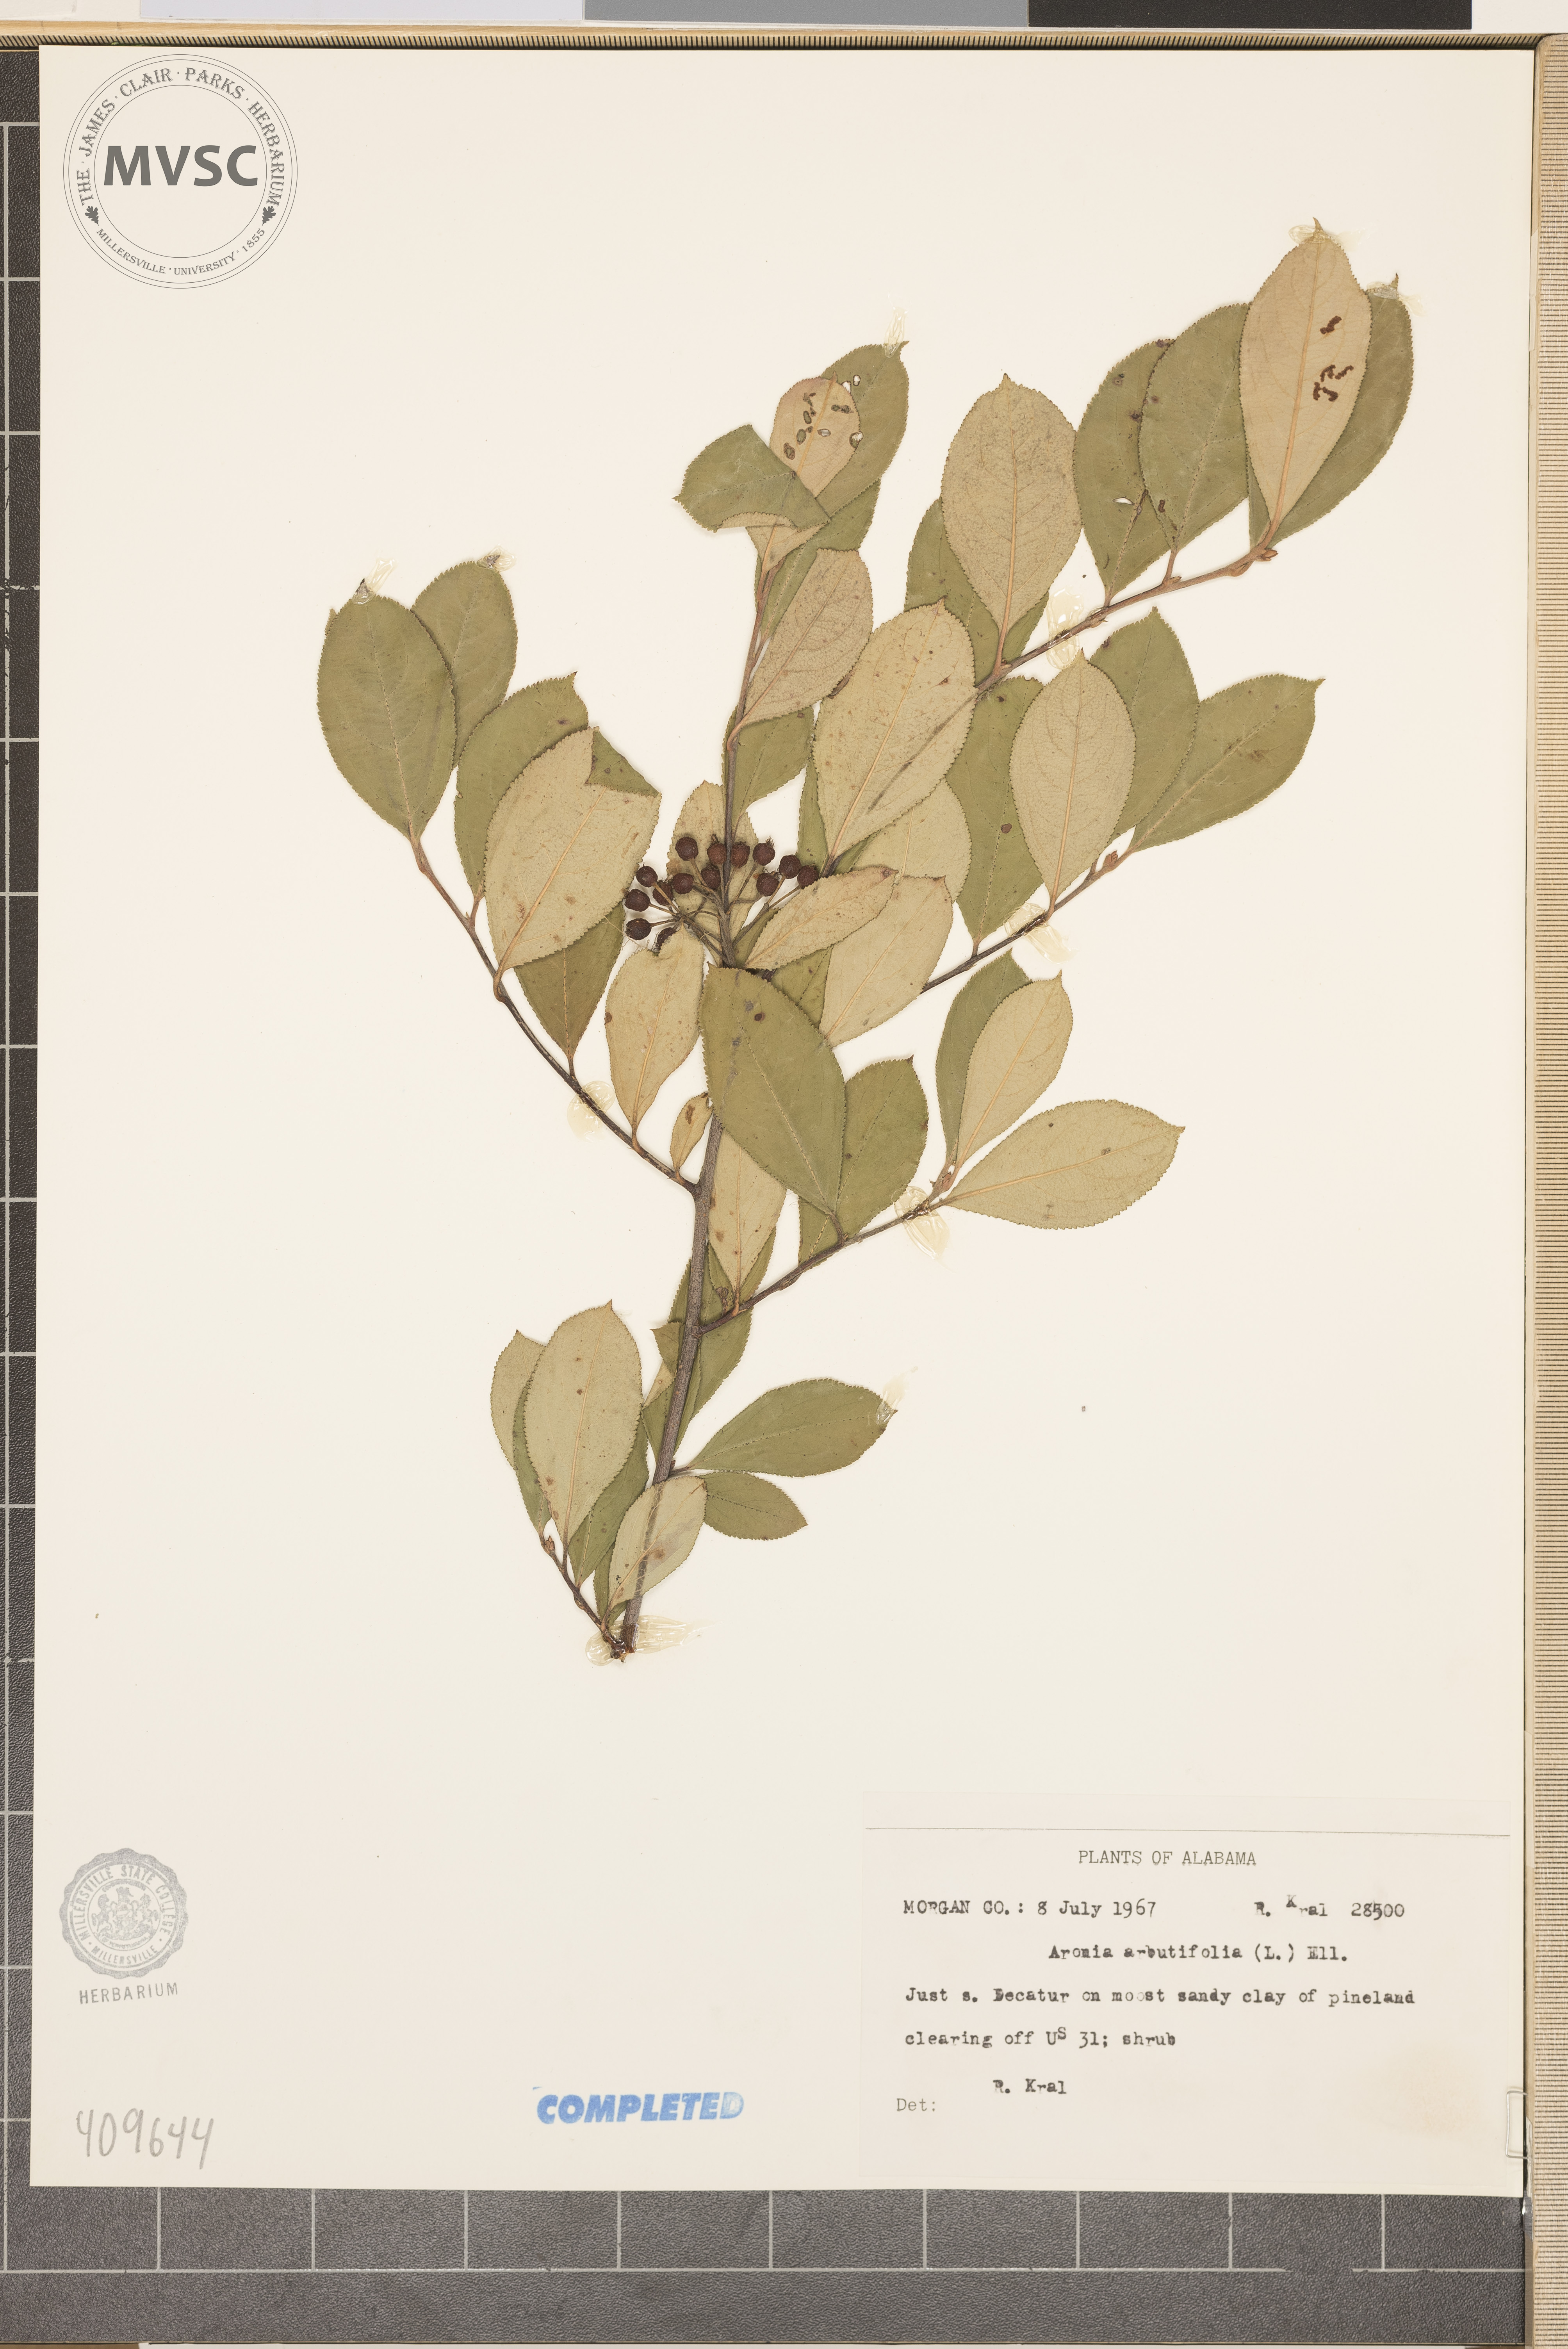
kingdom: Plantae
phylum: Tracheophyta
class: Magnoliopsida
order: Rosales
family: Rosaceae
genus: Aronia
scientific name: Aronia arbutifolia
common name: Red chokeberry
